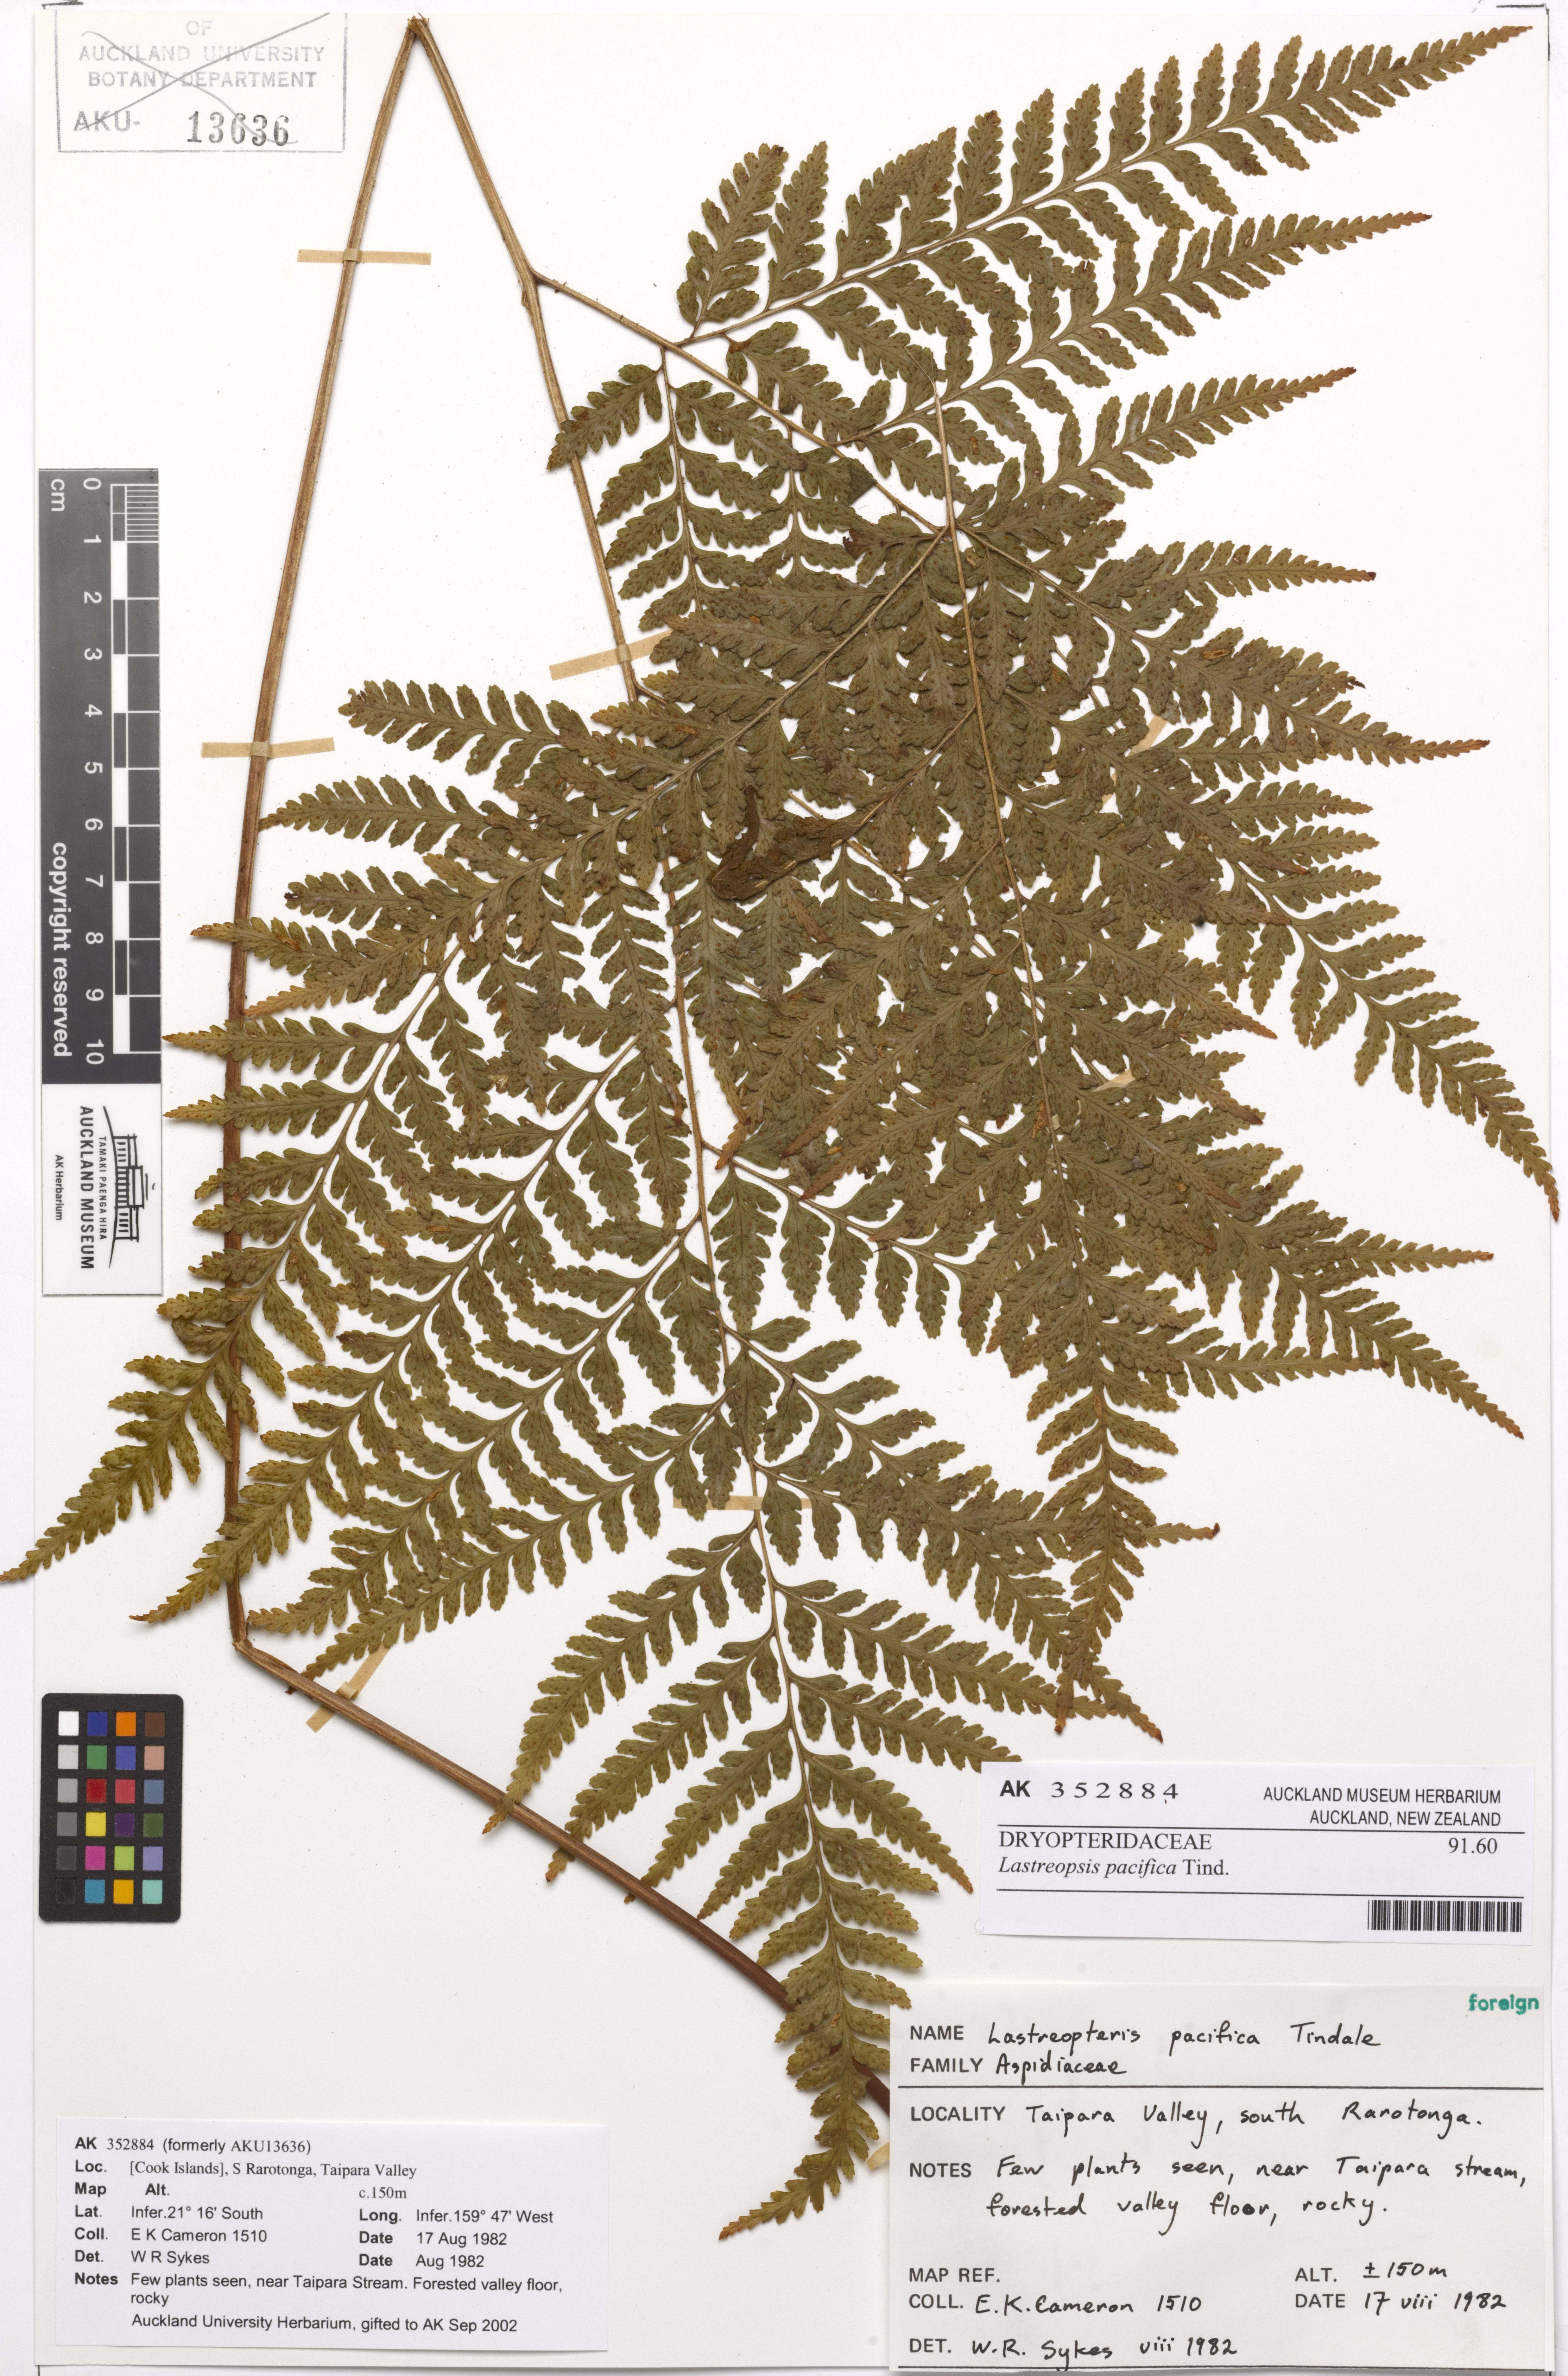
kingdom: Plantae
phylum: Tracheophyta
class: Polypodiopsida
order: Polypodiales
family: Dryopteridaceae
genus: Parapolystichum
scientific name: Parapolystichum pacificum
